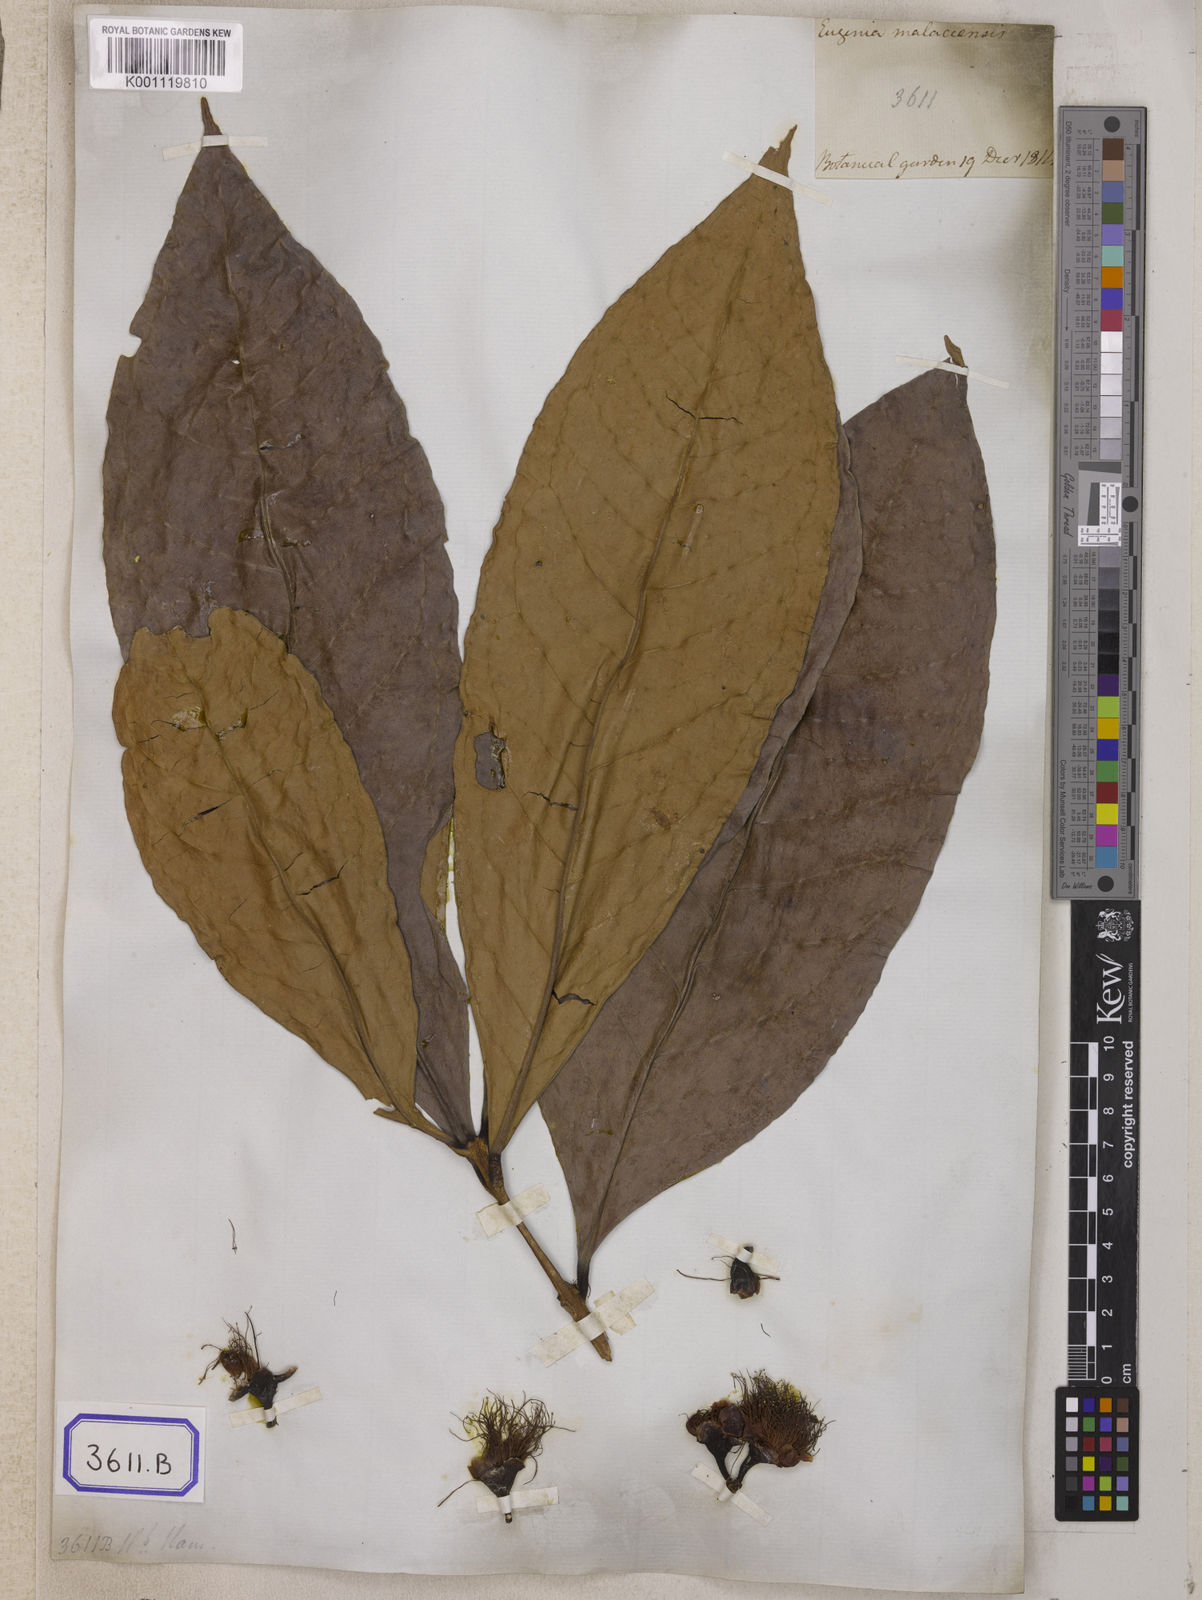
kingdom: Plantae
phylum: Tracheophyta
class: Magnoliopsida
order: Myrtales
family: Myrtaceae
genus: Syzygium
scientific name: Syzygium malaccense
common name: Malaysian apple
